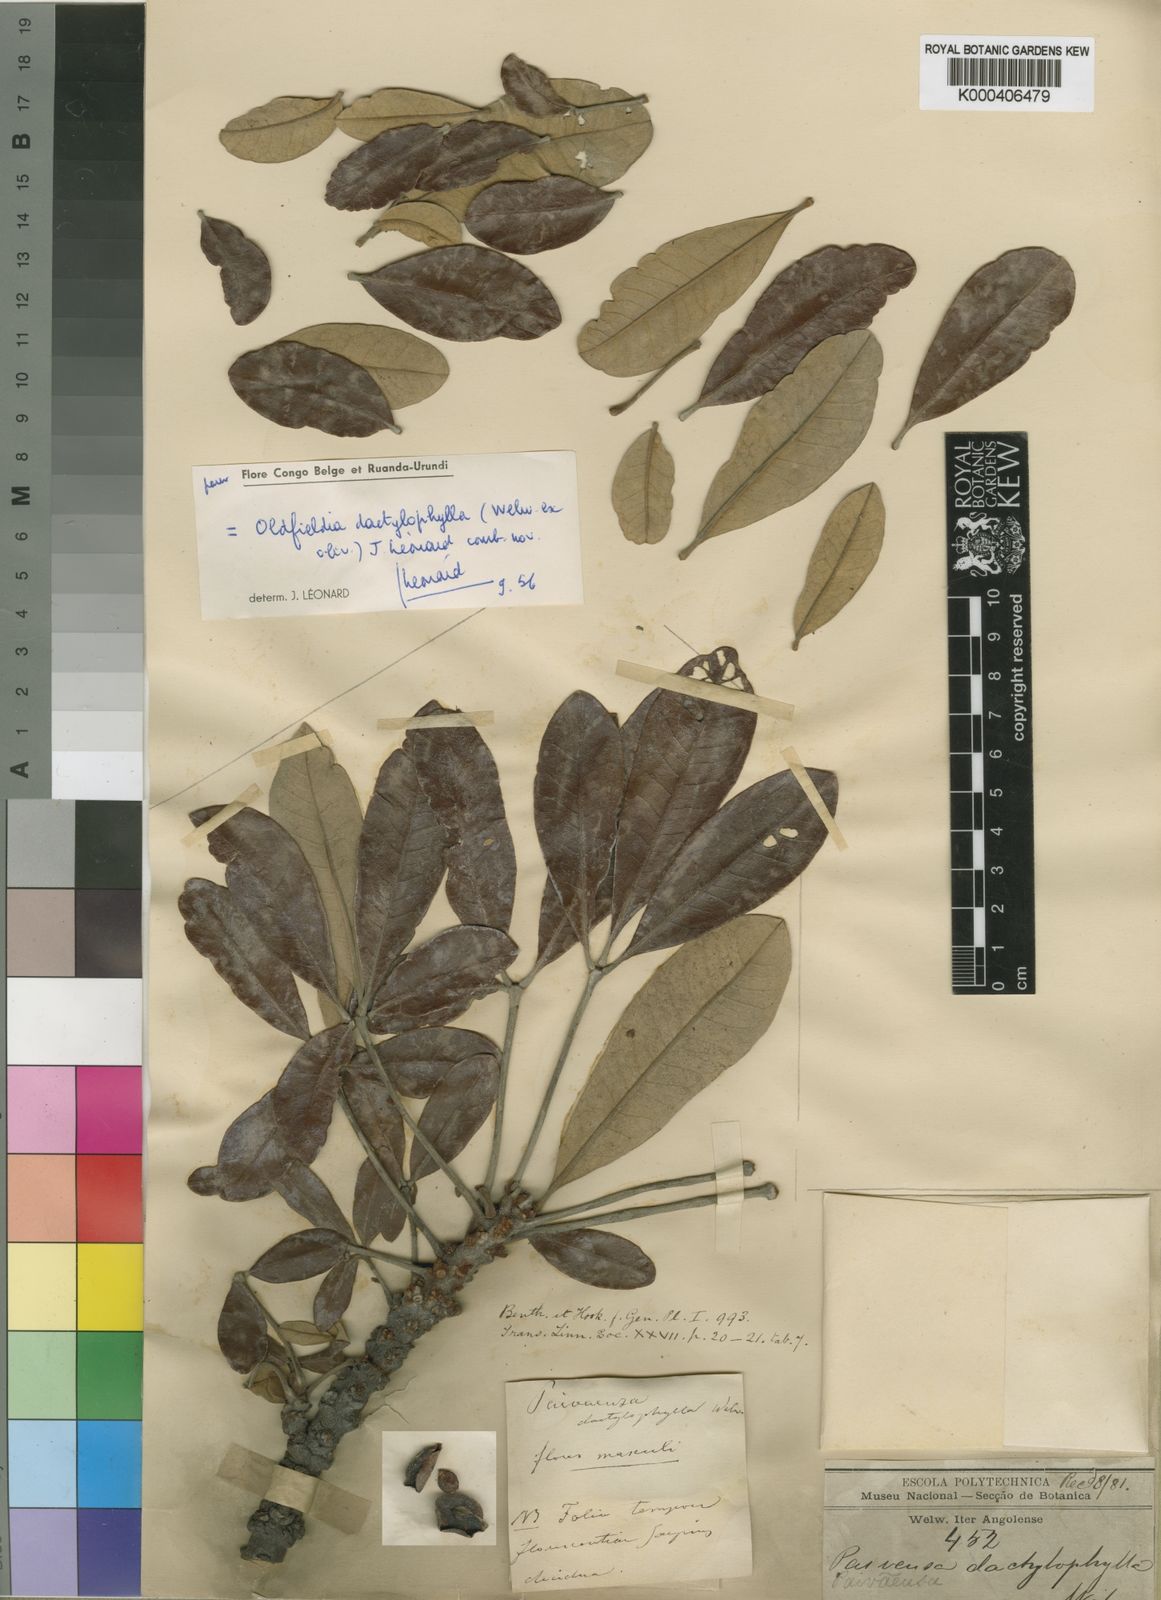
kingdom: Plantae
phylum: Tracheophyta
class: Magnoliopsida
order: Malpighiales
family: Picrodendraceae
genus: Oldfieldia
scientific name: Oldfieldia
